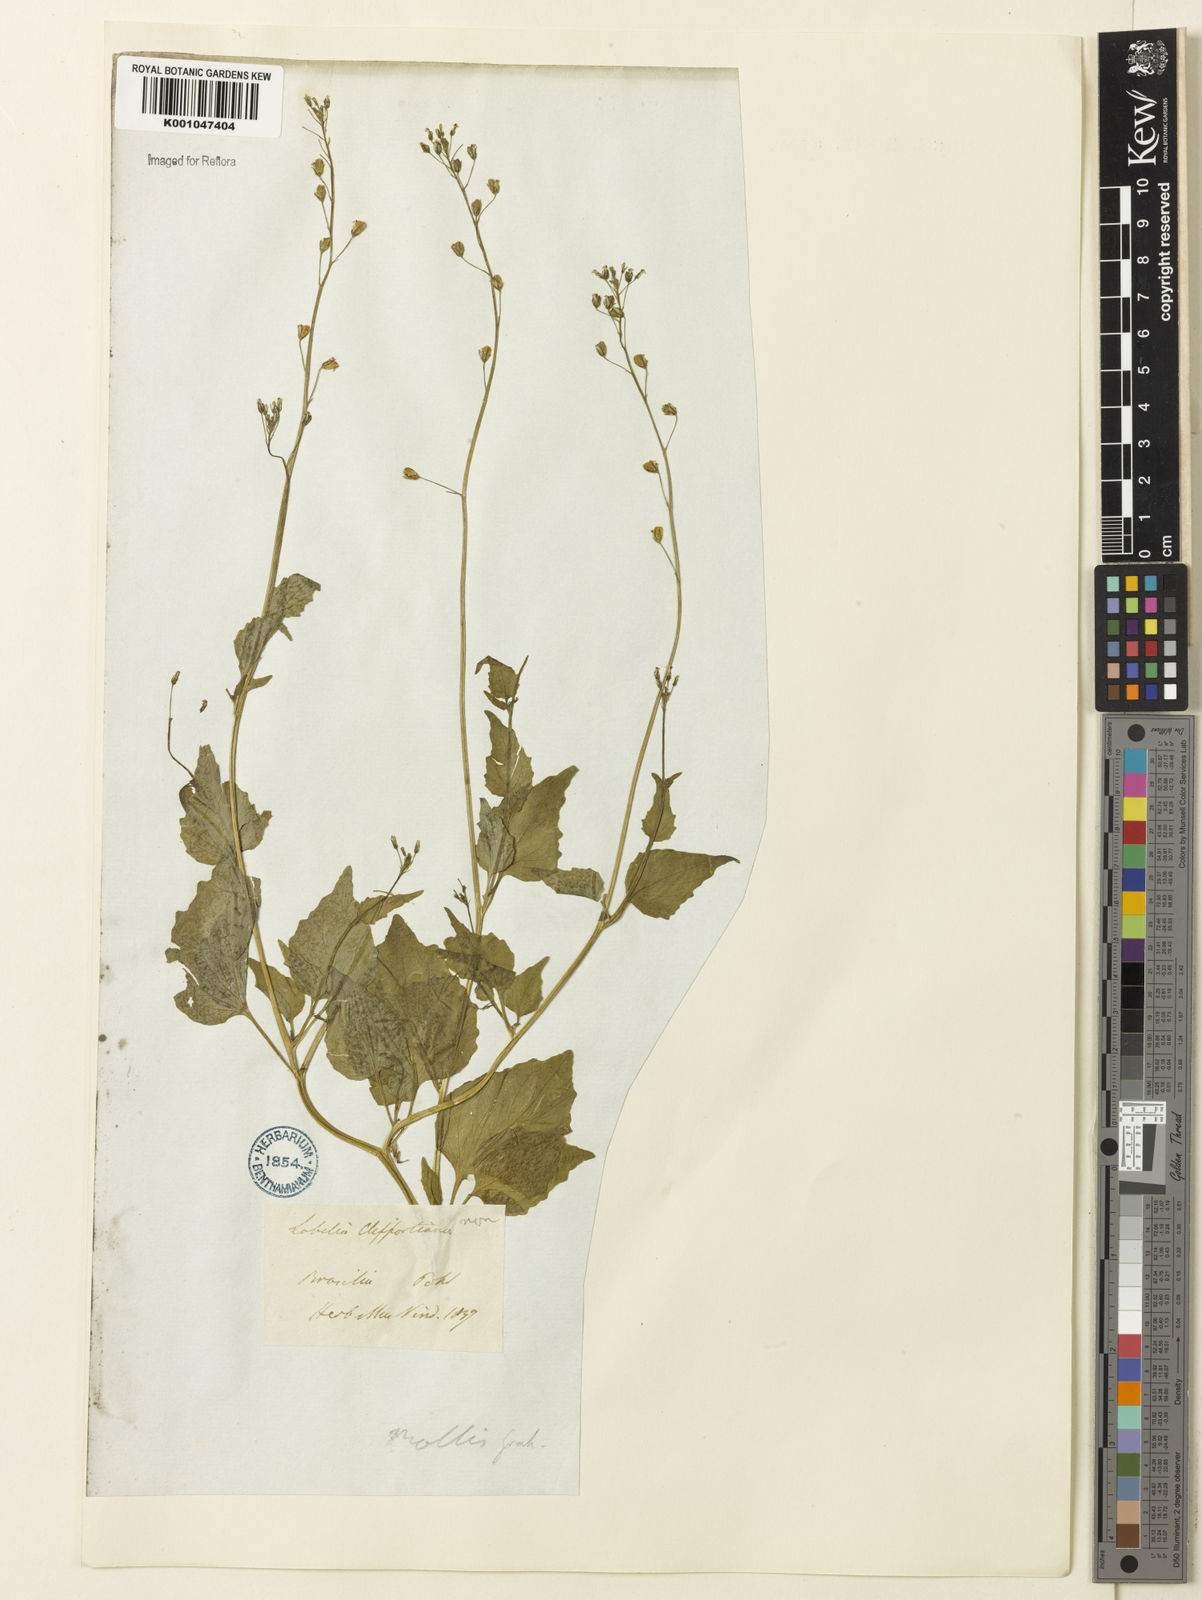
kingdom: Plantae
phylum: Tracheophyta
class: Magnoliopsida
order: Asterales
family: Campanulaceae
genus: Lobelia
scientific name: Lobelia xalapensis
